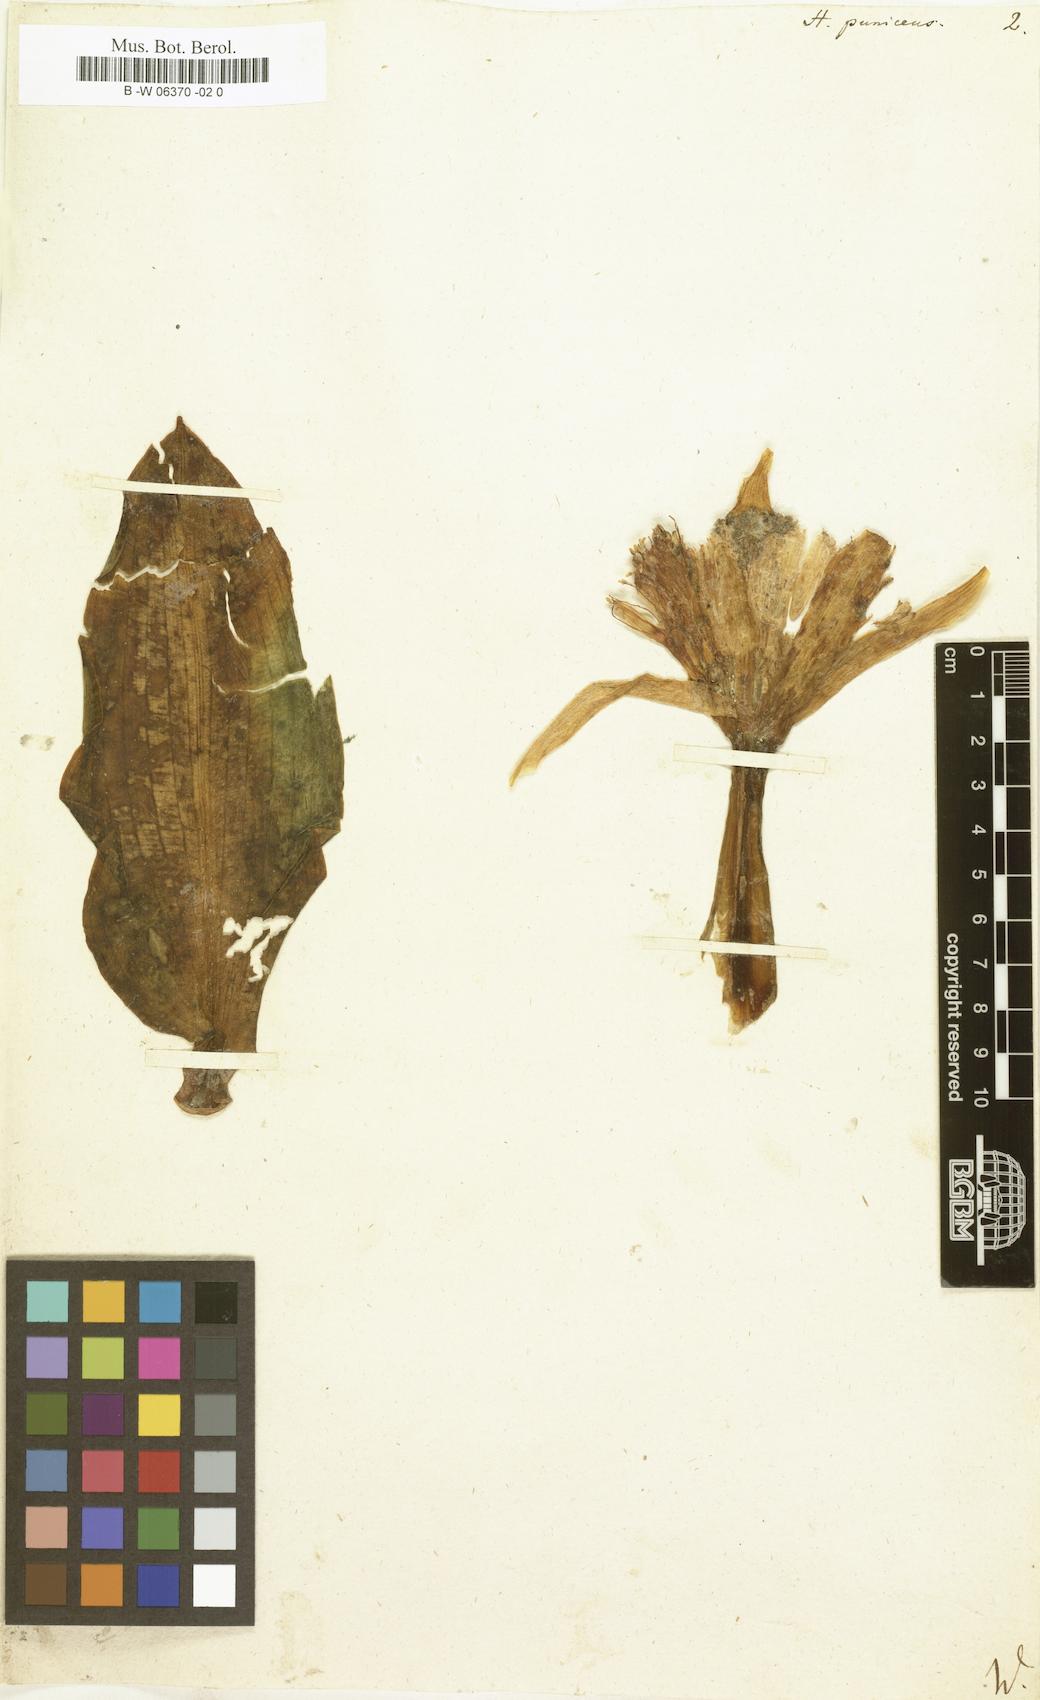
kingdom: Plantae
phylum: Tracheophyta
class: Liliopsida
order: Asparagales
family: Amaryllidaceae
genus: Scadoxus
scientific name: Scadoxus puniceus
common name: Royal-paintbrush
